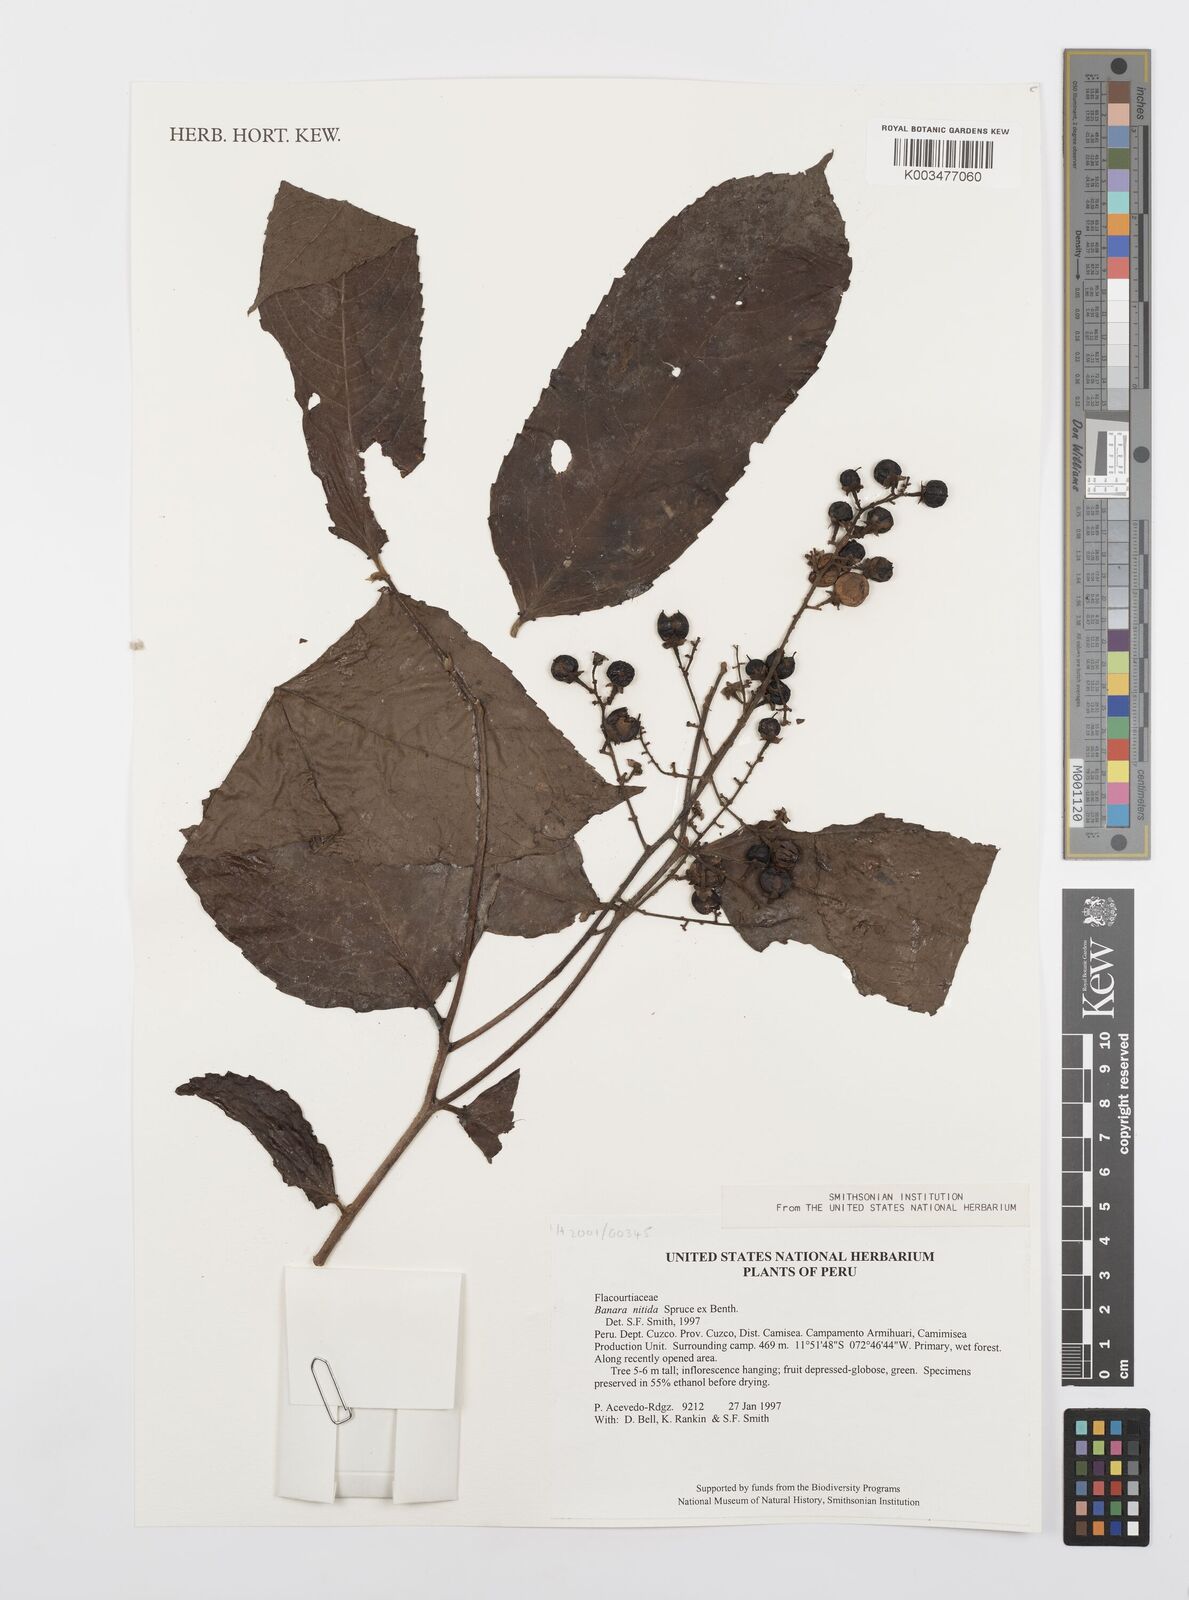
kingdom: Plantae
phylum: Tracheophyta
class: Magnoliopsida
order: Malpighiales
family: Salicaceae
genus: Banara
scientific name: Banara nitida
